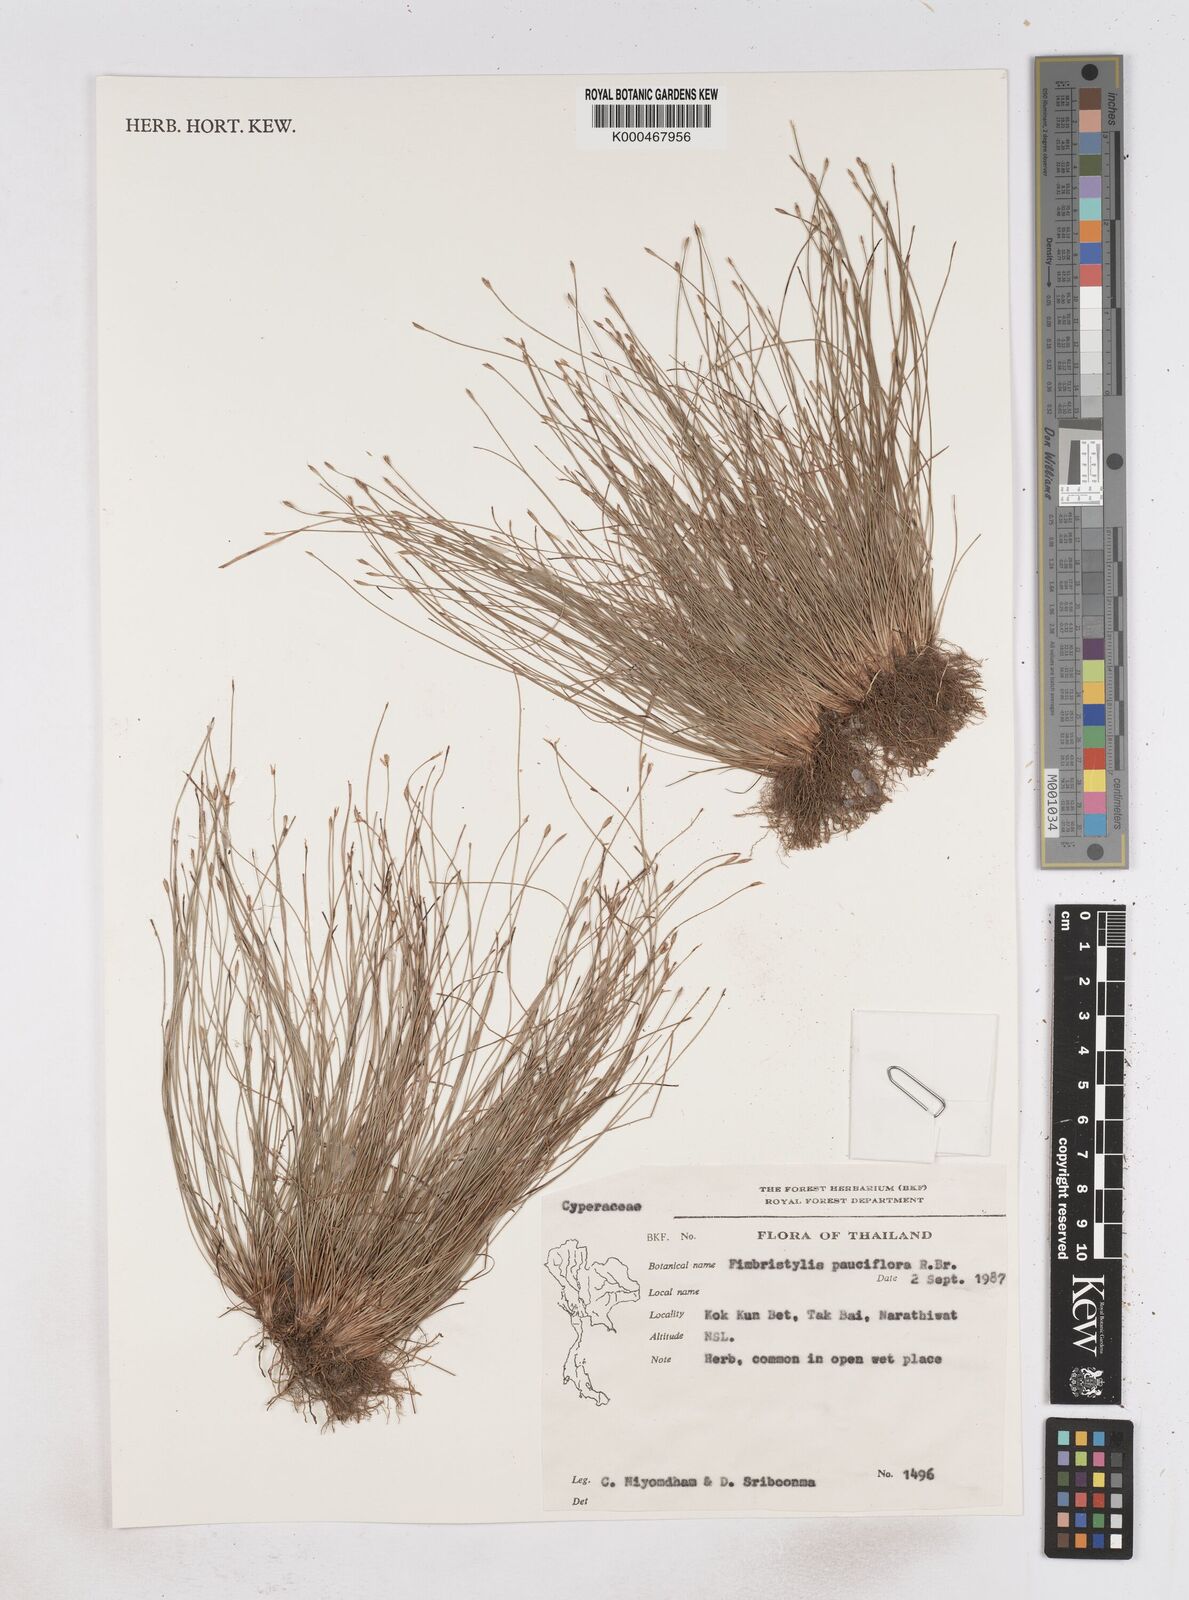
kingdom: Plantae
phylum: Tracheophyta
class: Liliopsida
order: Poales
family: Cyperaceae
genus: Fimbristylis
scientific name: Fimbristylis pauciflora
